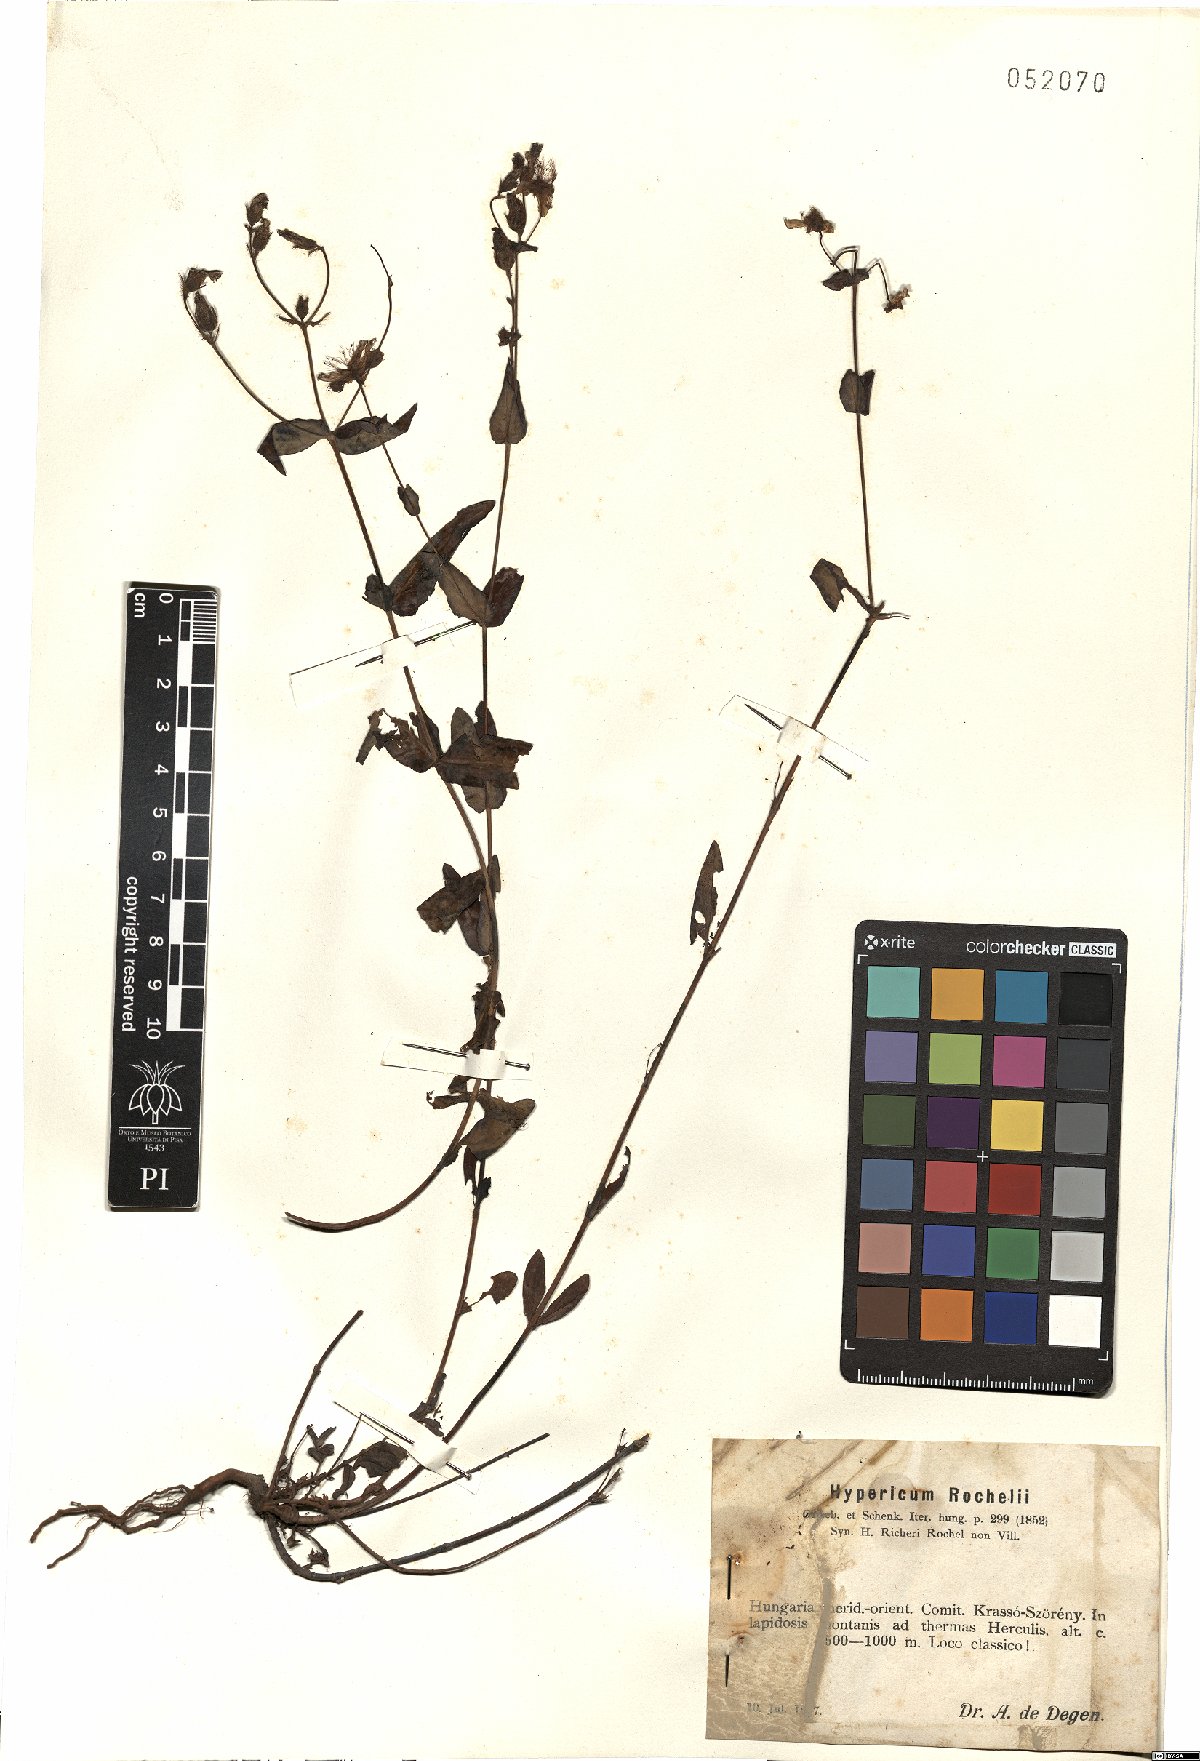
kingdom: Plantae
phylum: Tracheophyta
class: Magnoliopsida
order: Malpighiales
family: Hypericaceae
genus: Hypericum
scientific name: Hypericum rochelii
